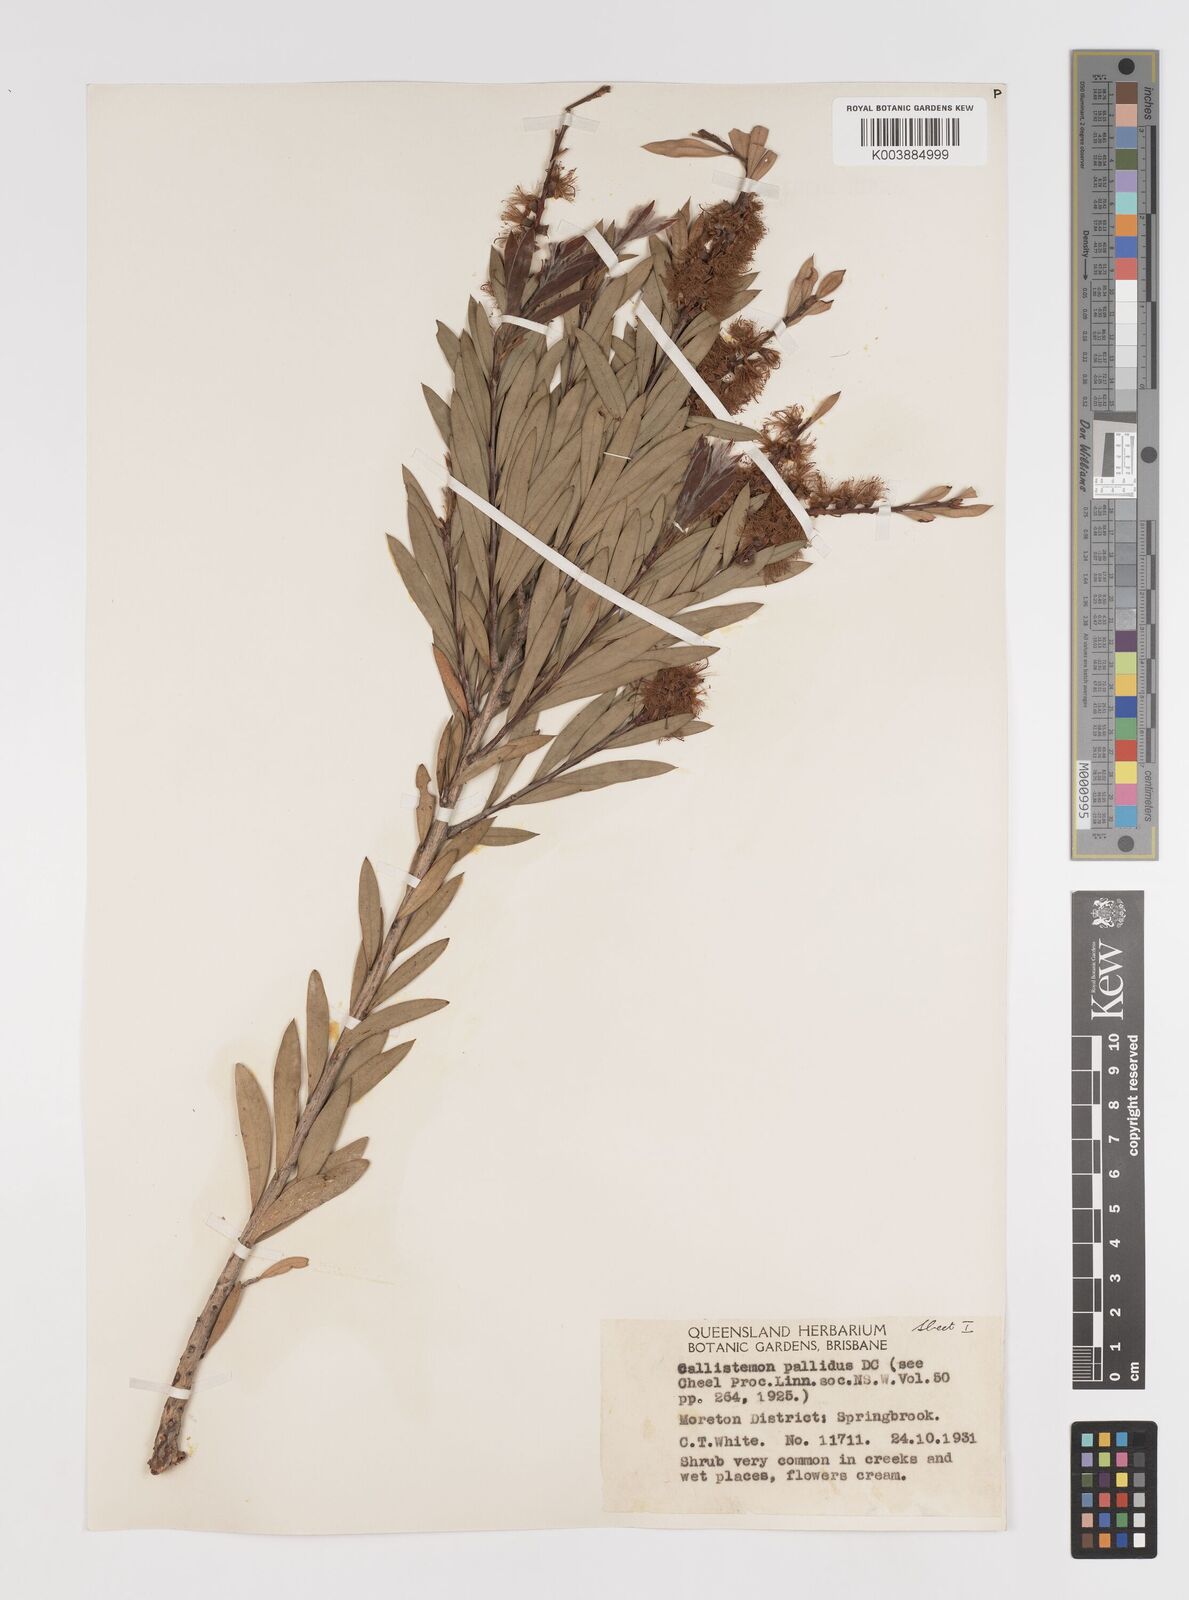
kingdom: Plantae
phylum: Tracheophyta
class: Magnoliopsida
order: Myrtales
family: Myrtaceae
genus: Melaleuca
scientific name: Melaleuca pallida
